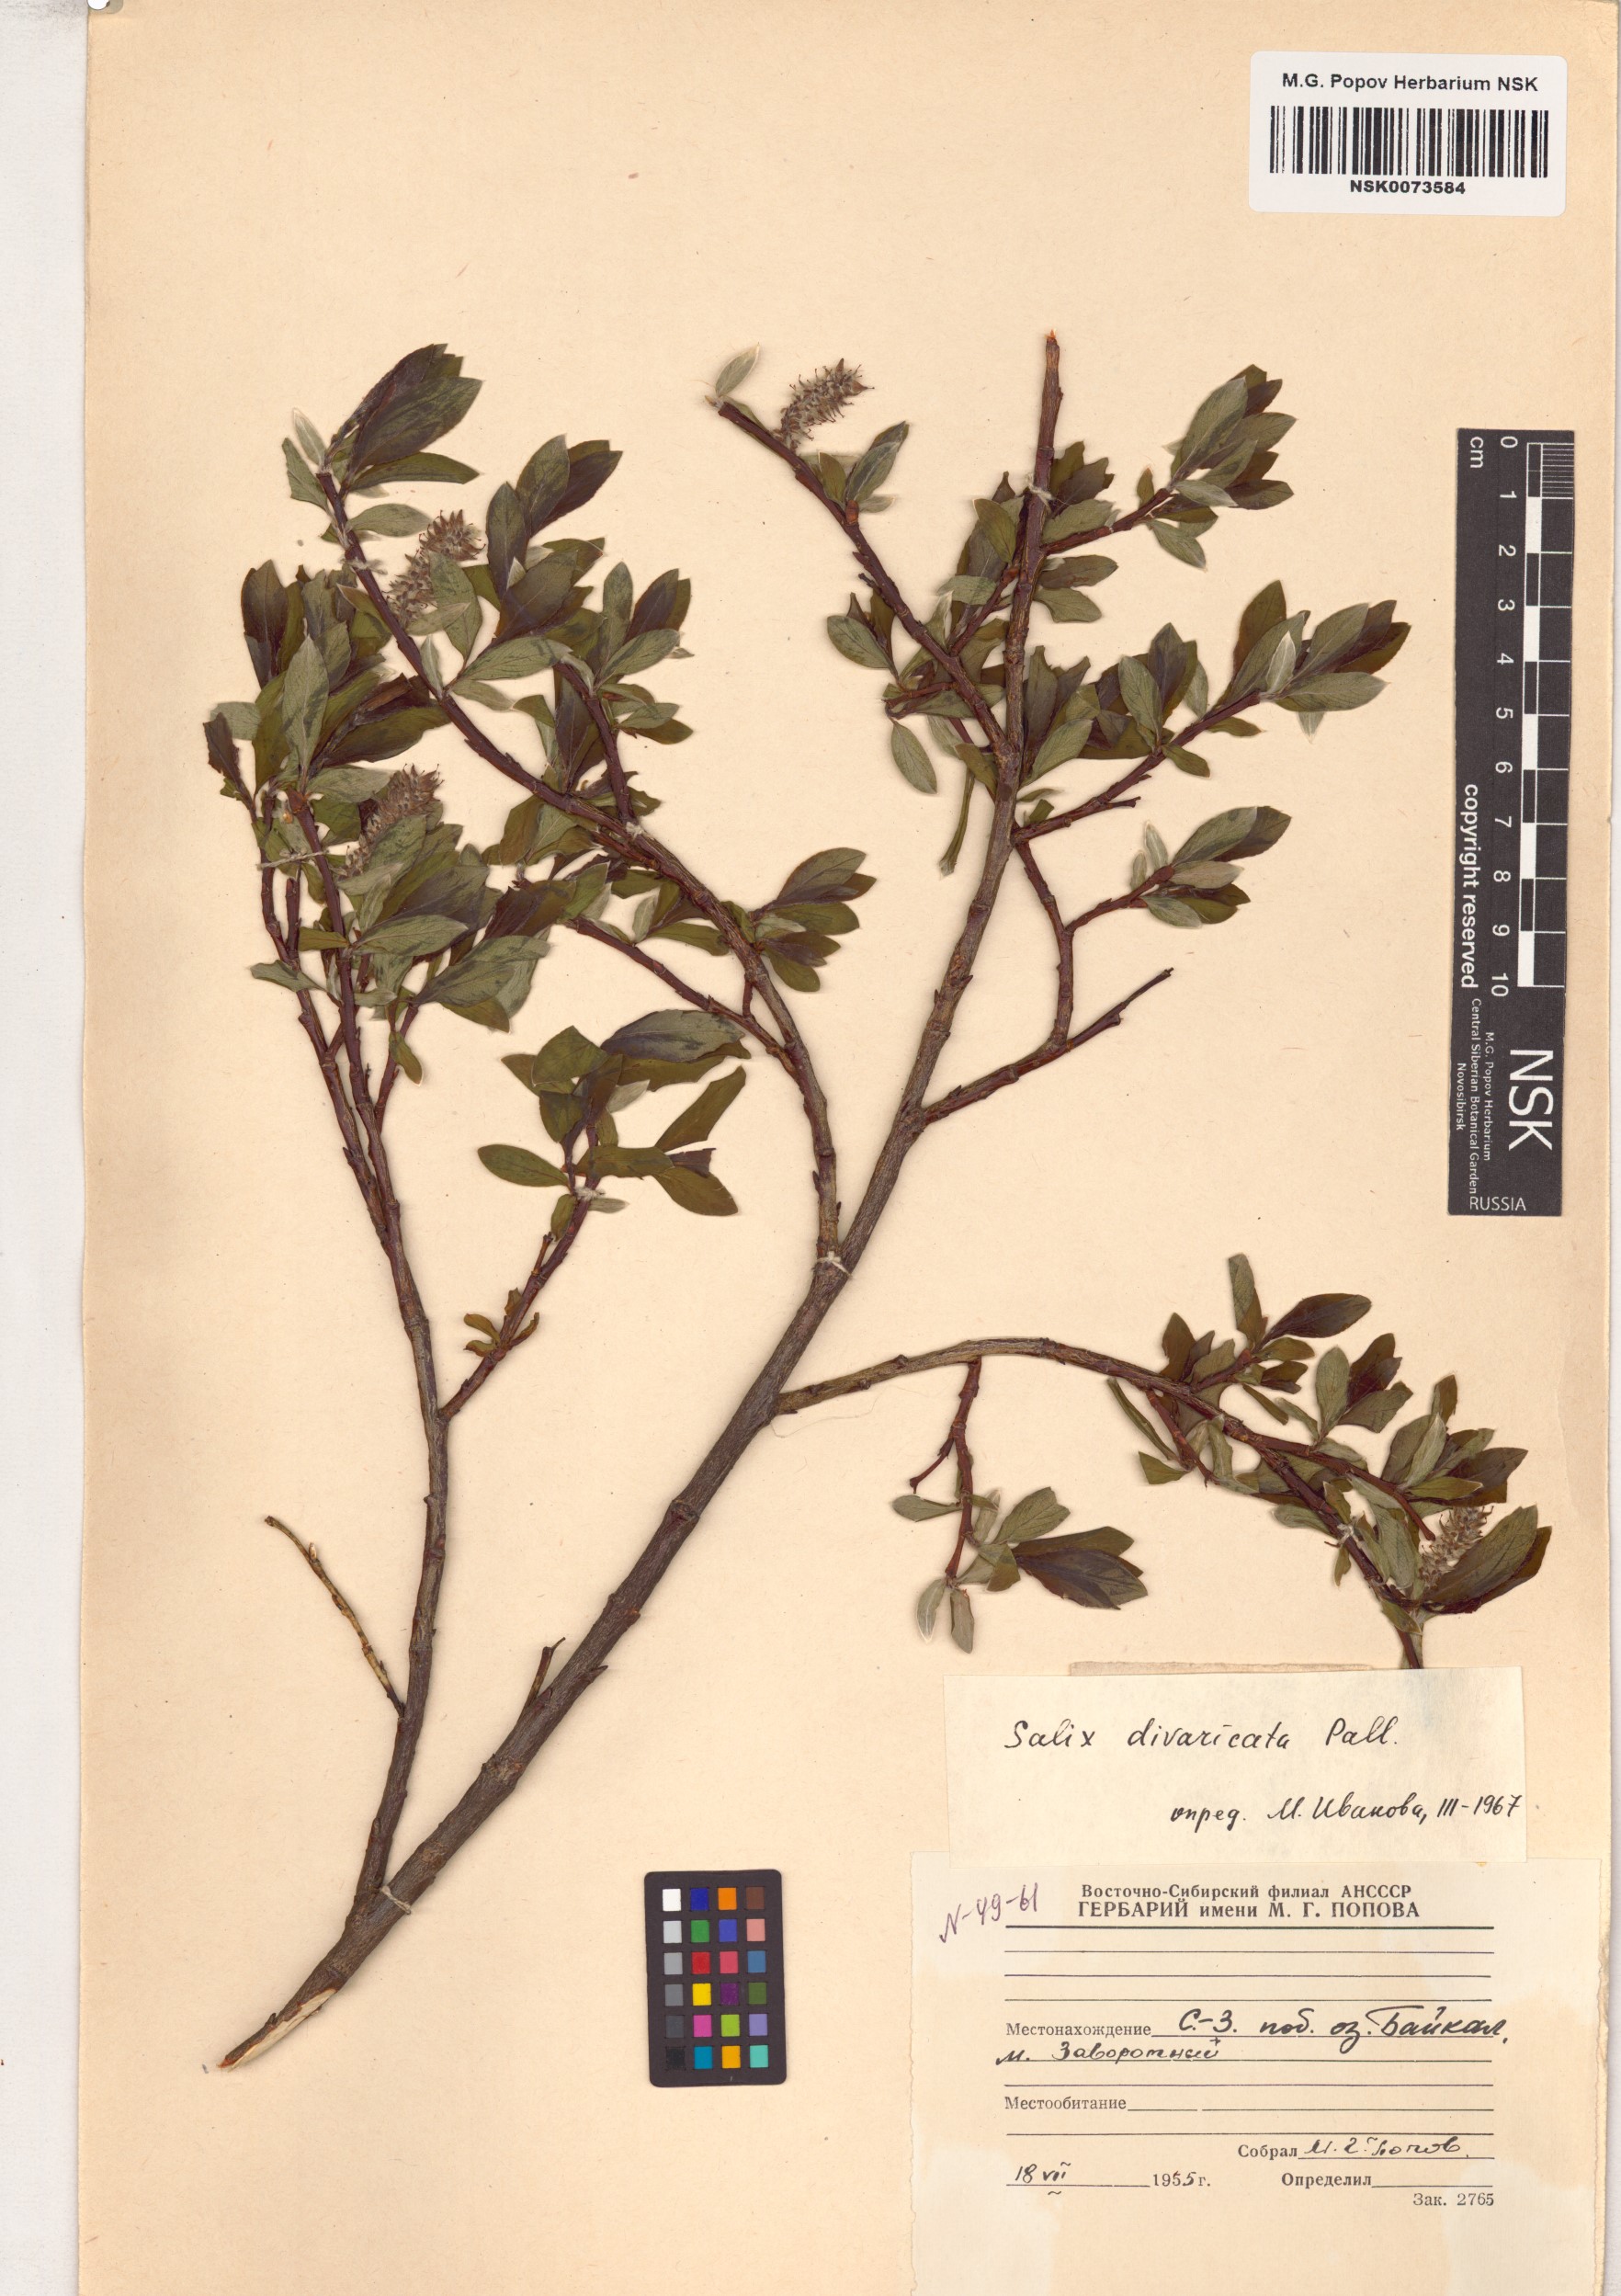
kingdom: Plantae
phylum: Tracheophyta
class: Magnoliopsida
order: Malpighiales
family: Salicaceae
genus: Salix
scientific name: Salix divaricata
